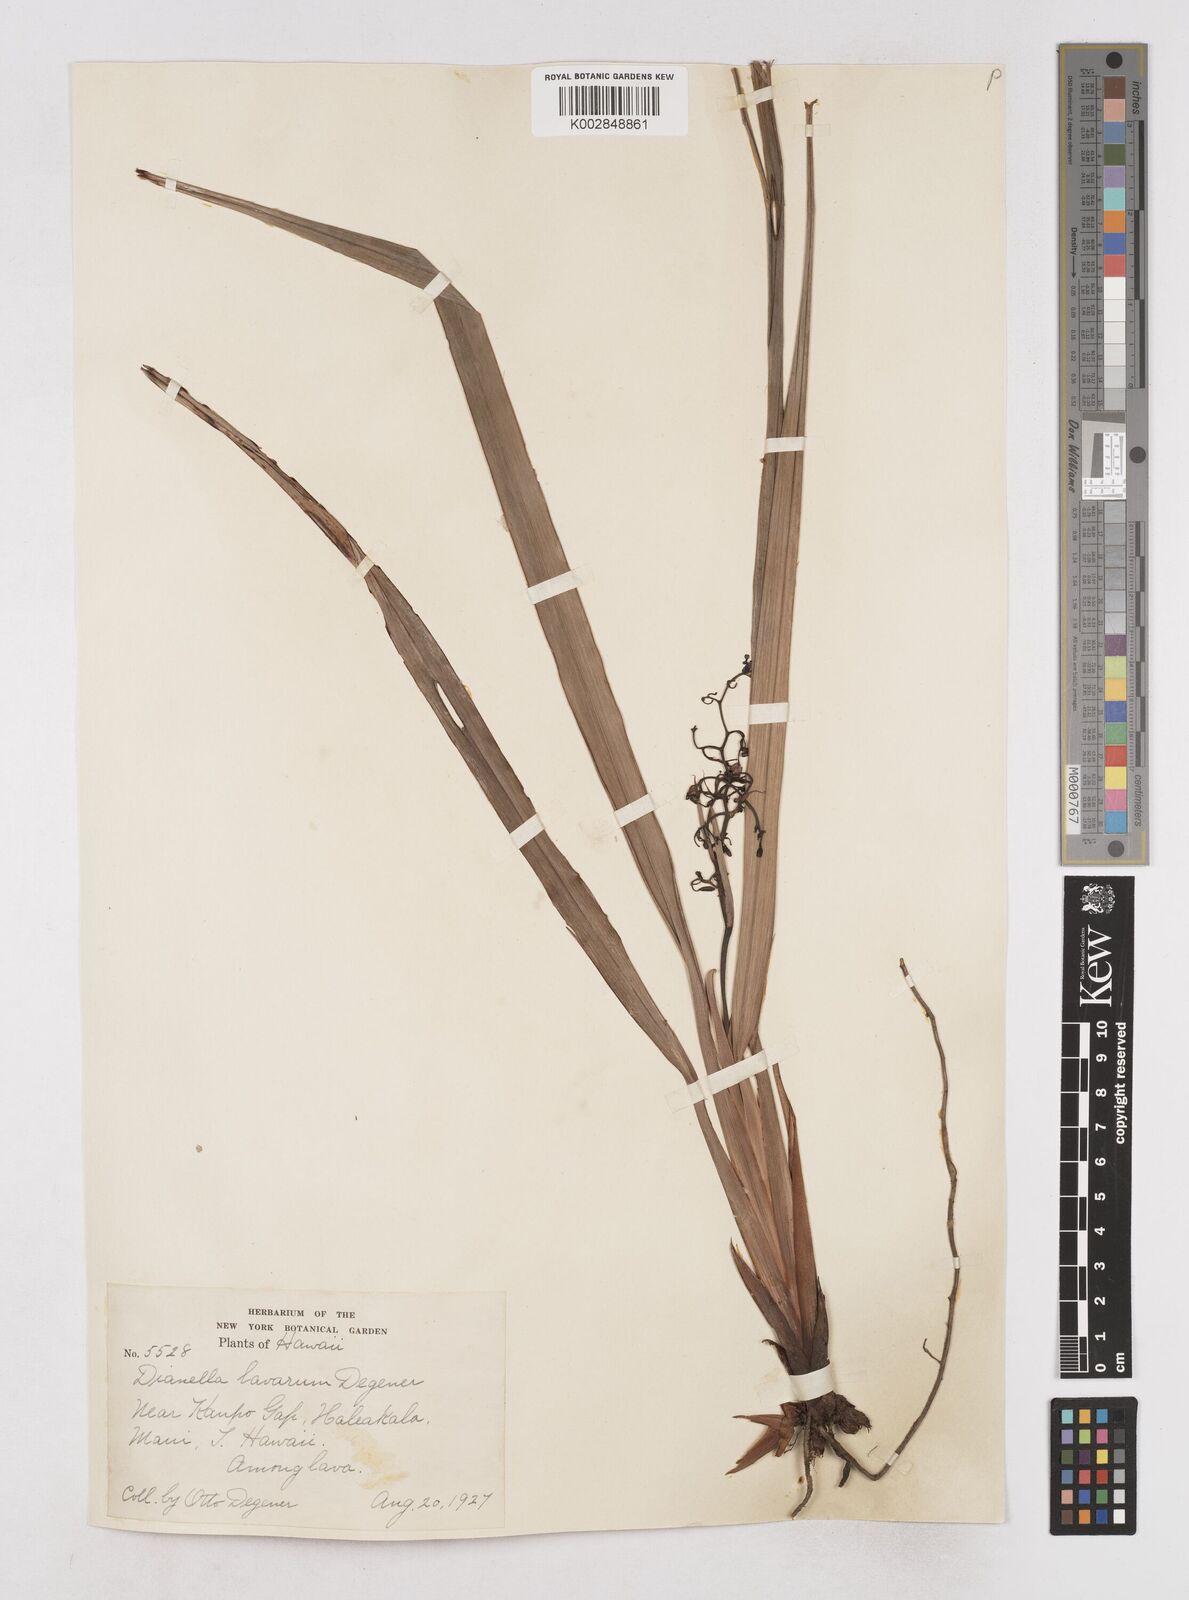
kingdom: Plantae
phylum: Tracheophyta
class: Liliopsida
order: Asparagales
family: Asphodelaceae
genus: Dianella
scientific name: Dianella sandwicensis
